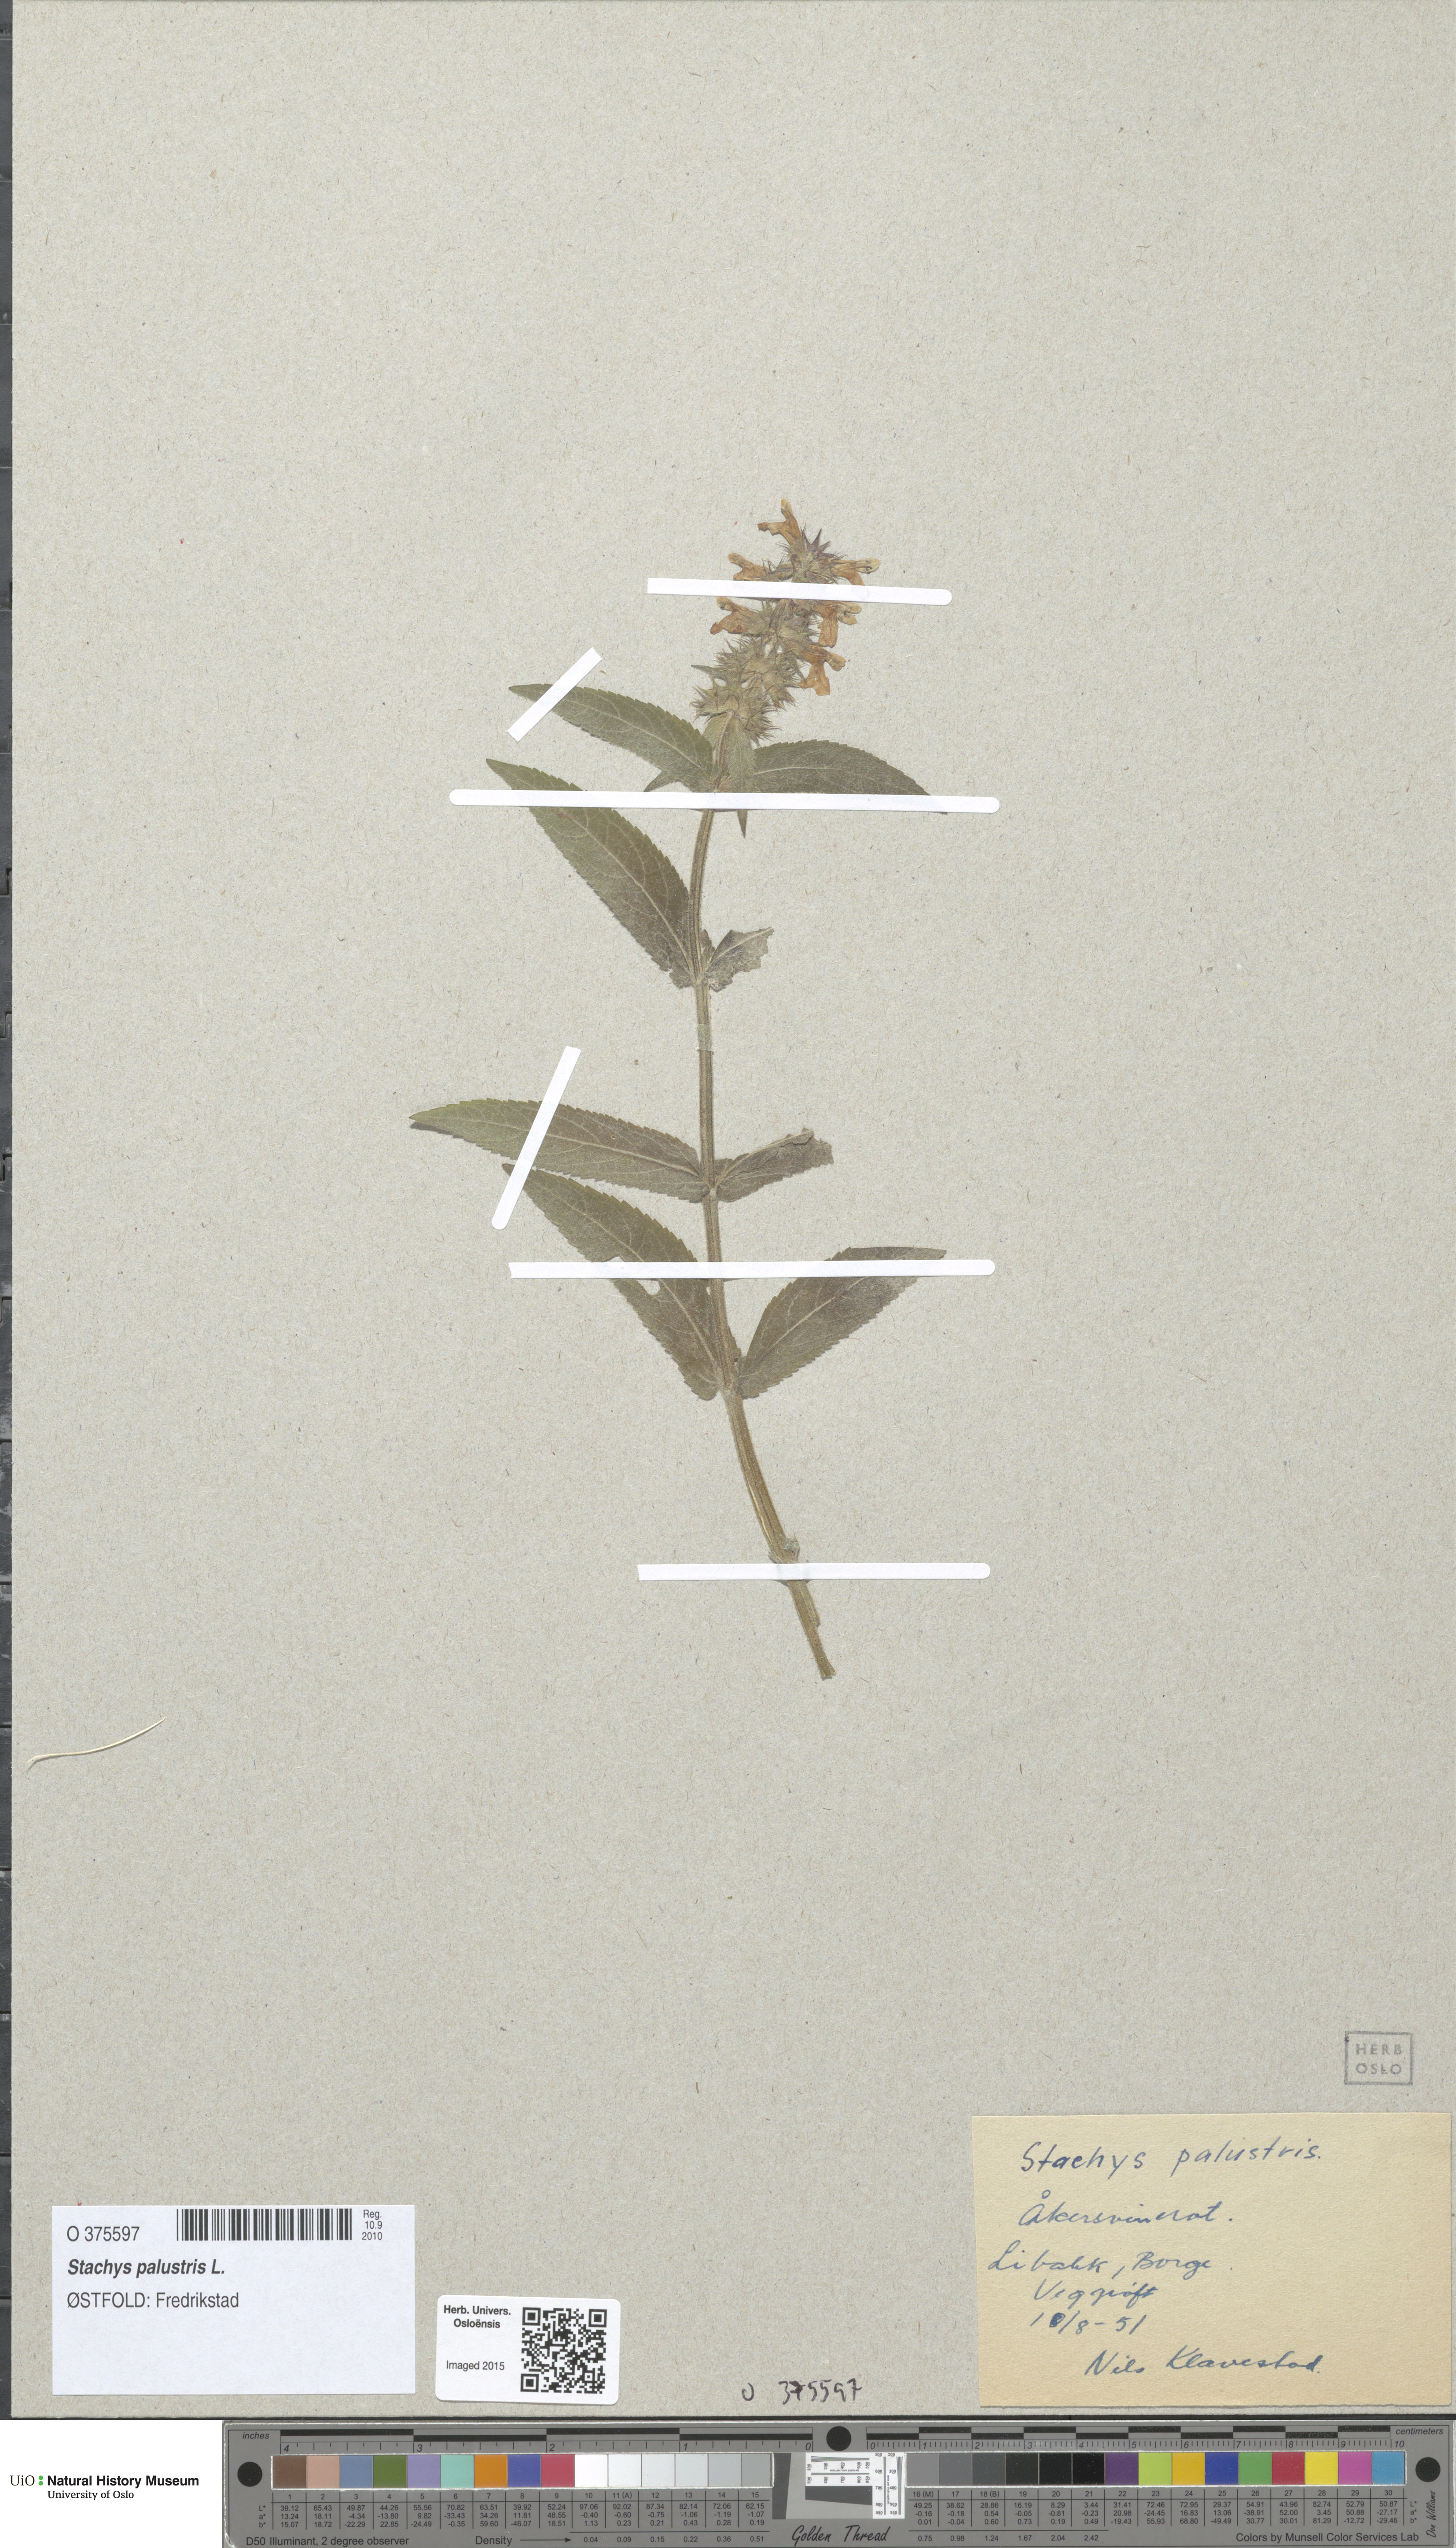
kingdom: Plantae
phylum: Tracheophyta
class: Magnoliopsida
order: Lamiales
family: Lamiaceae
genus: Stachys
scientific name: Stachys palustris
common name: Marsh woundwort
